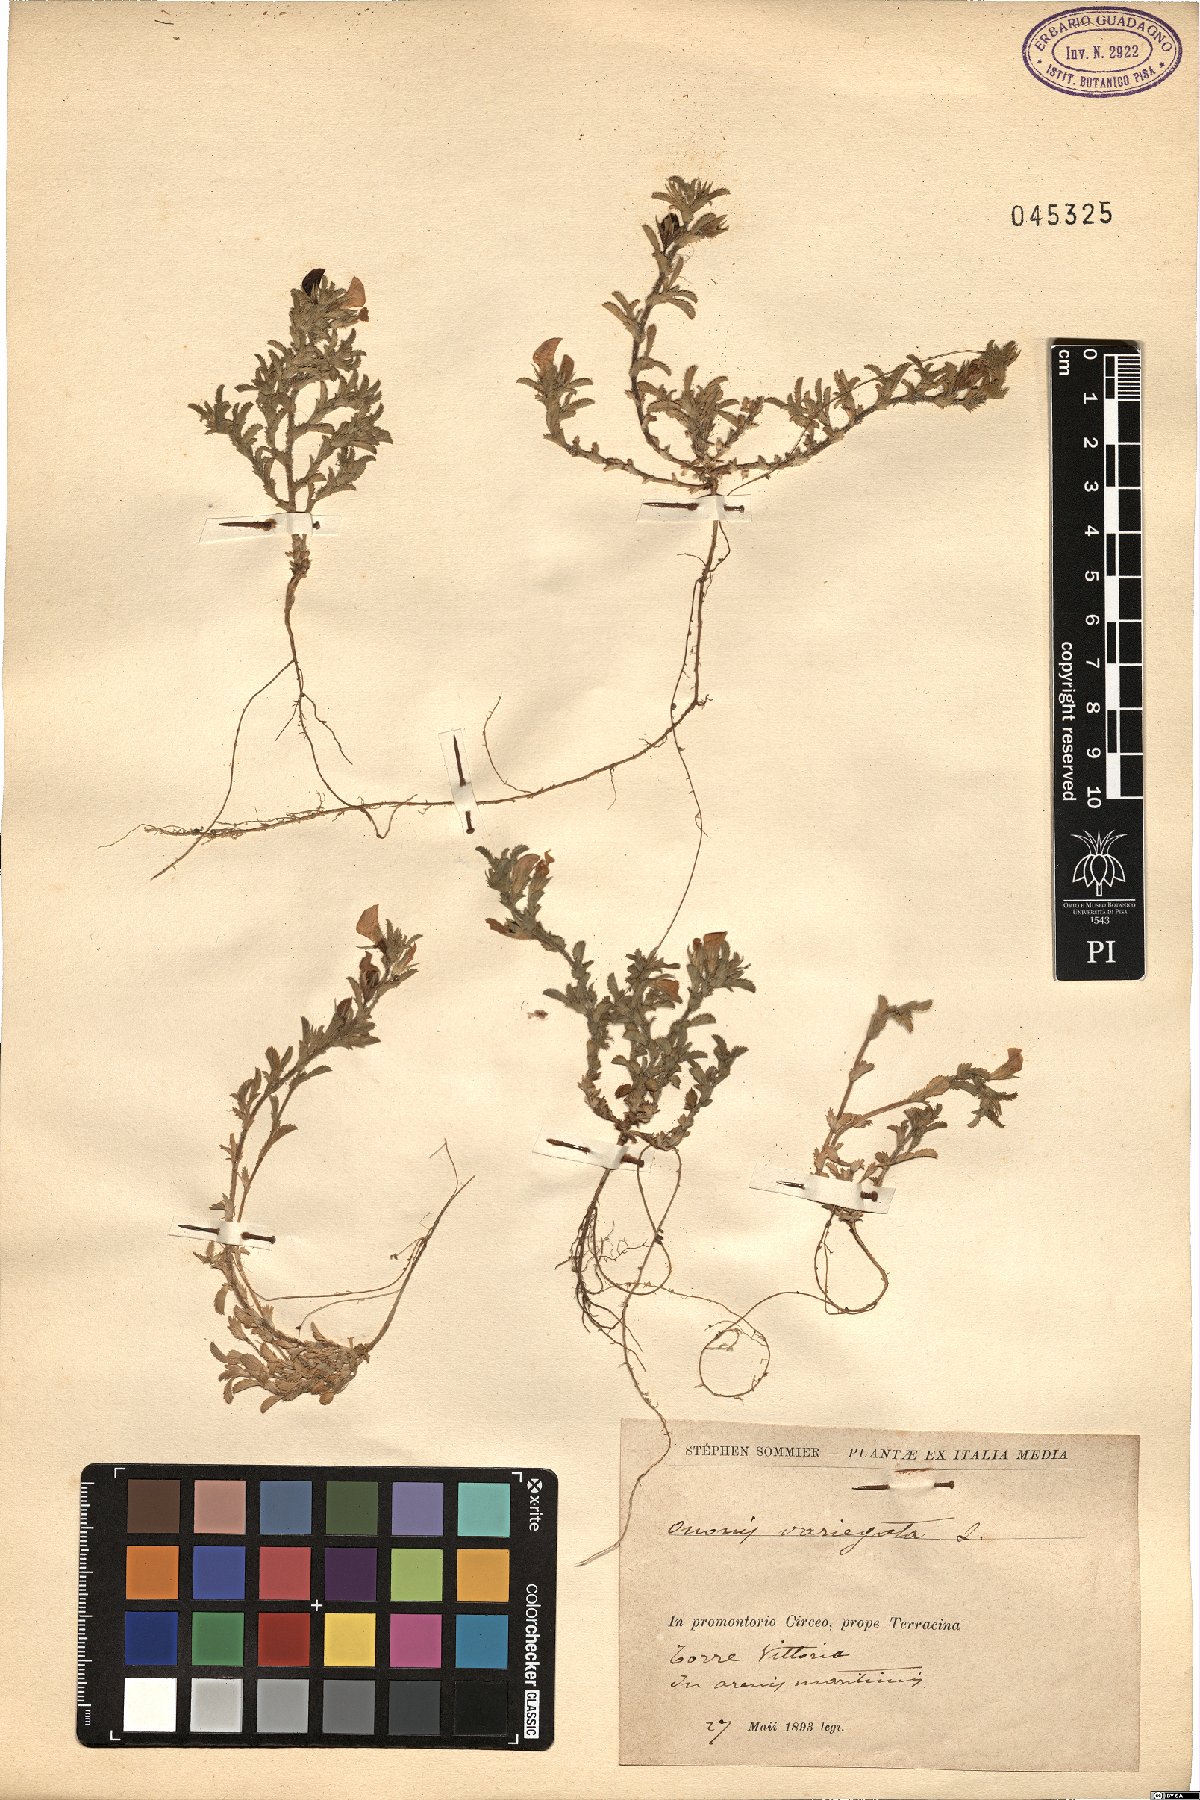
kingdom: Plantae
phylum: Tracheophyta
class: Magnoliopsida
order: Fabales
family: Fabaceae
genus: Ononis
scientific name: Ononis variegata
